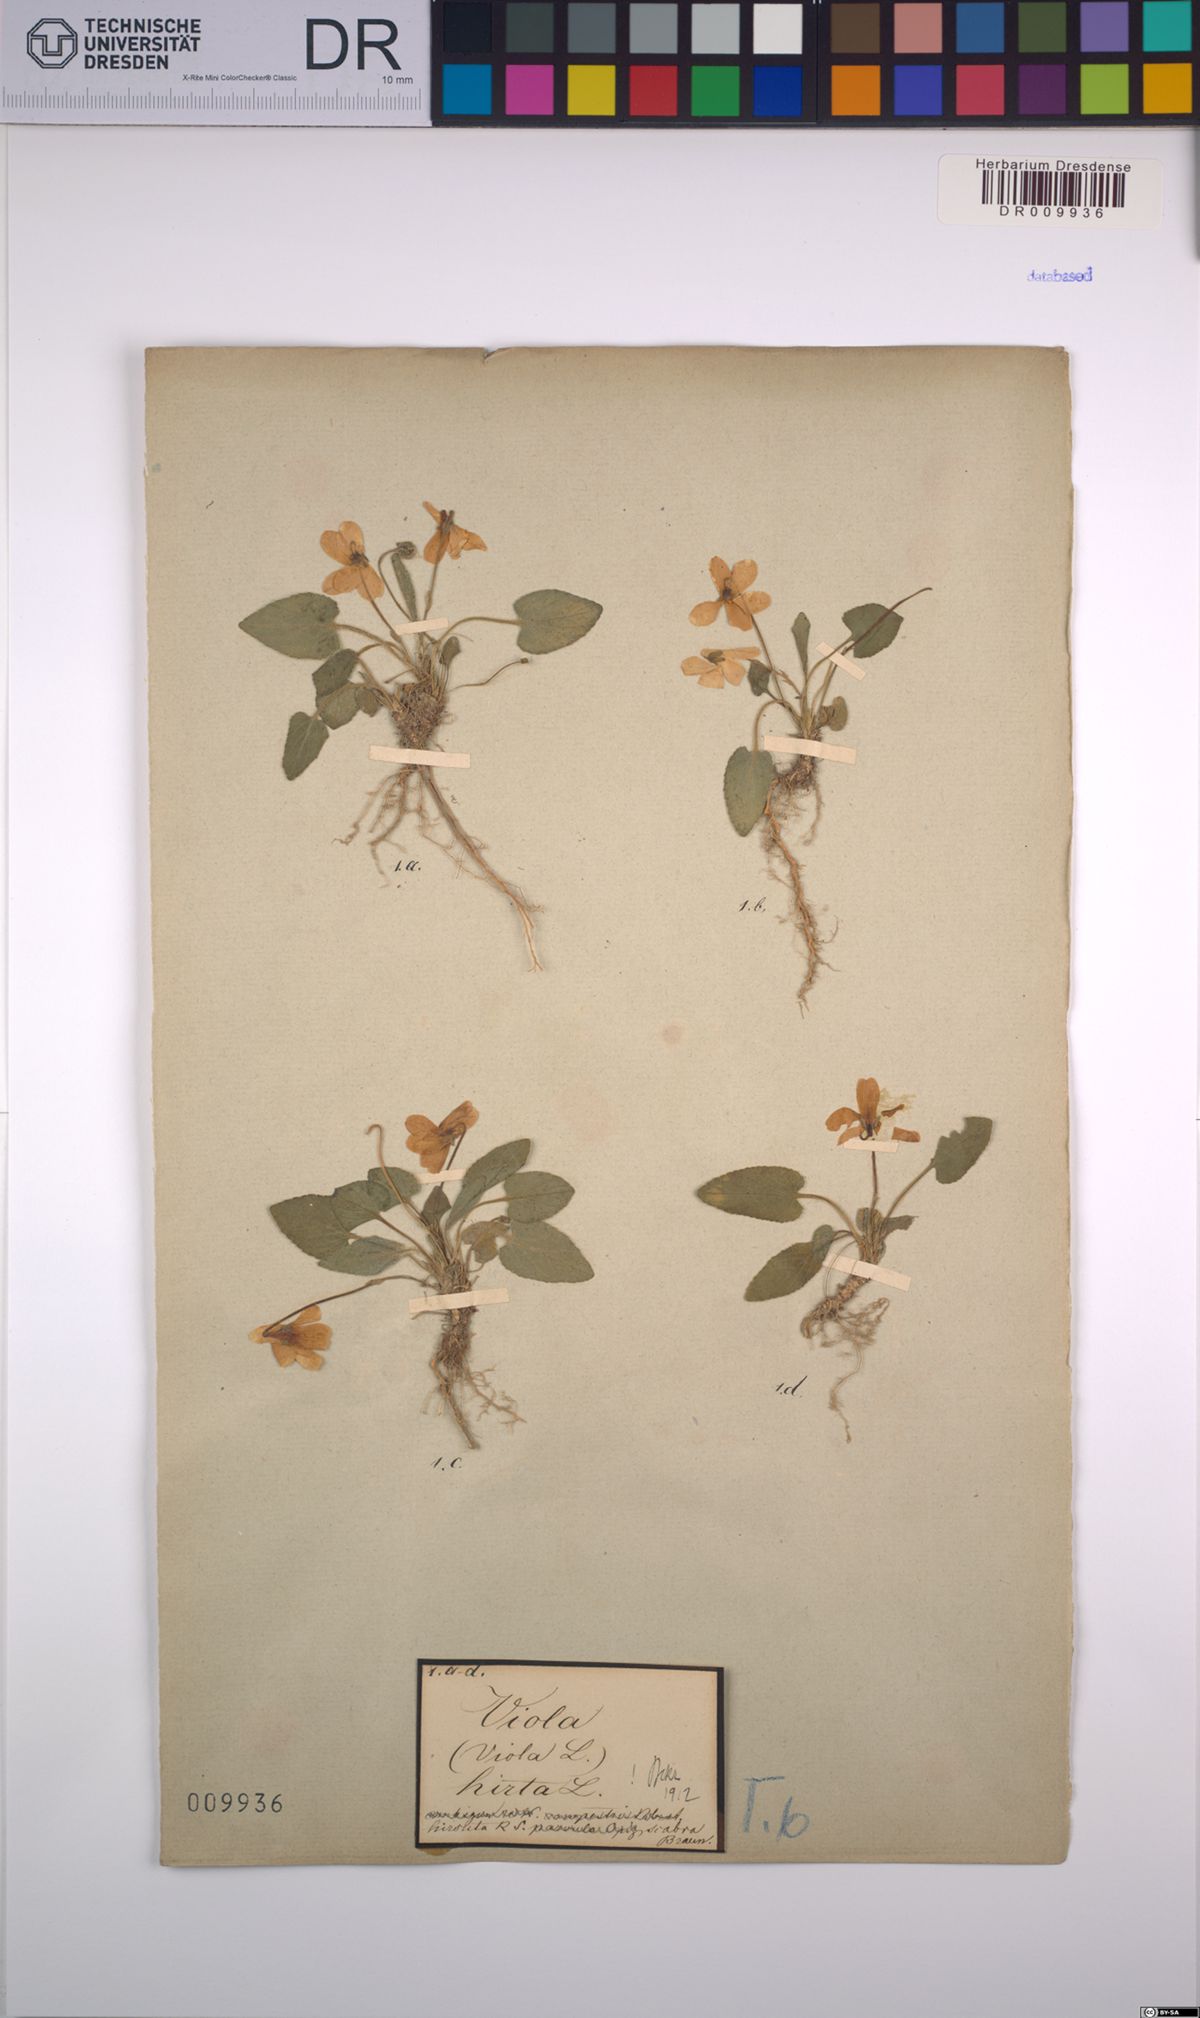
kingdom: Plantae
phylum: Tracheophyta
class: Magnoliopsida
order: Malpighiales
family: Violaceae
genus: Viola
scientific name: Viola hirta
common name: Hairy violet
